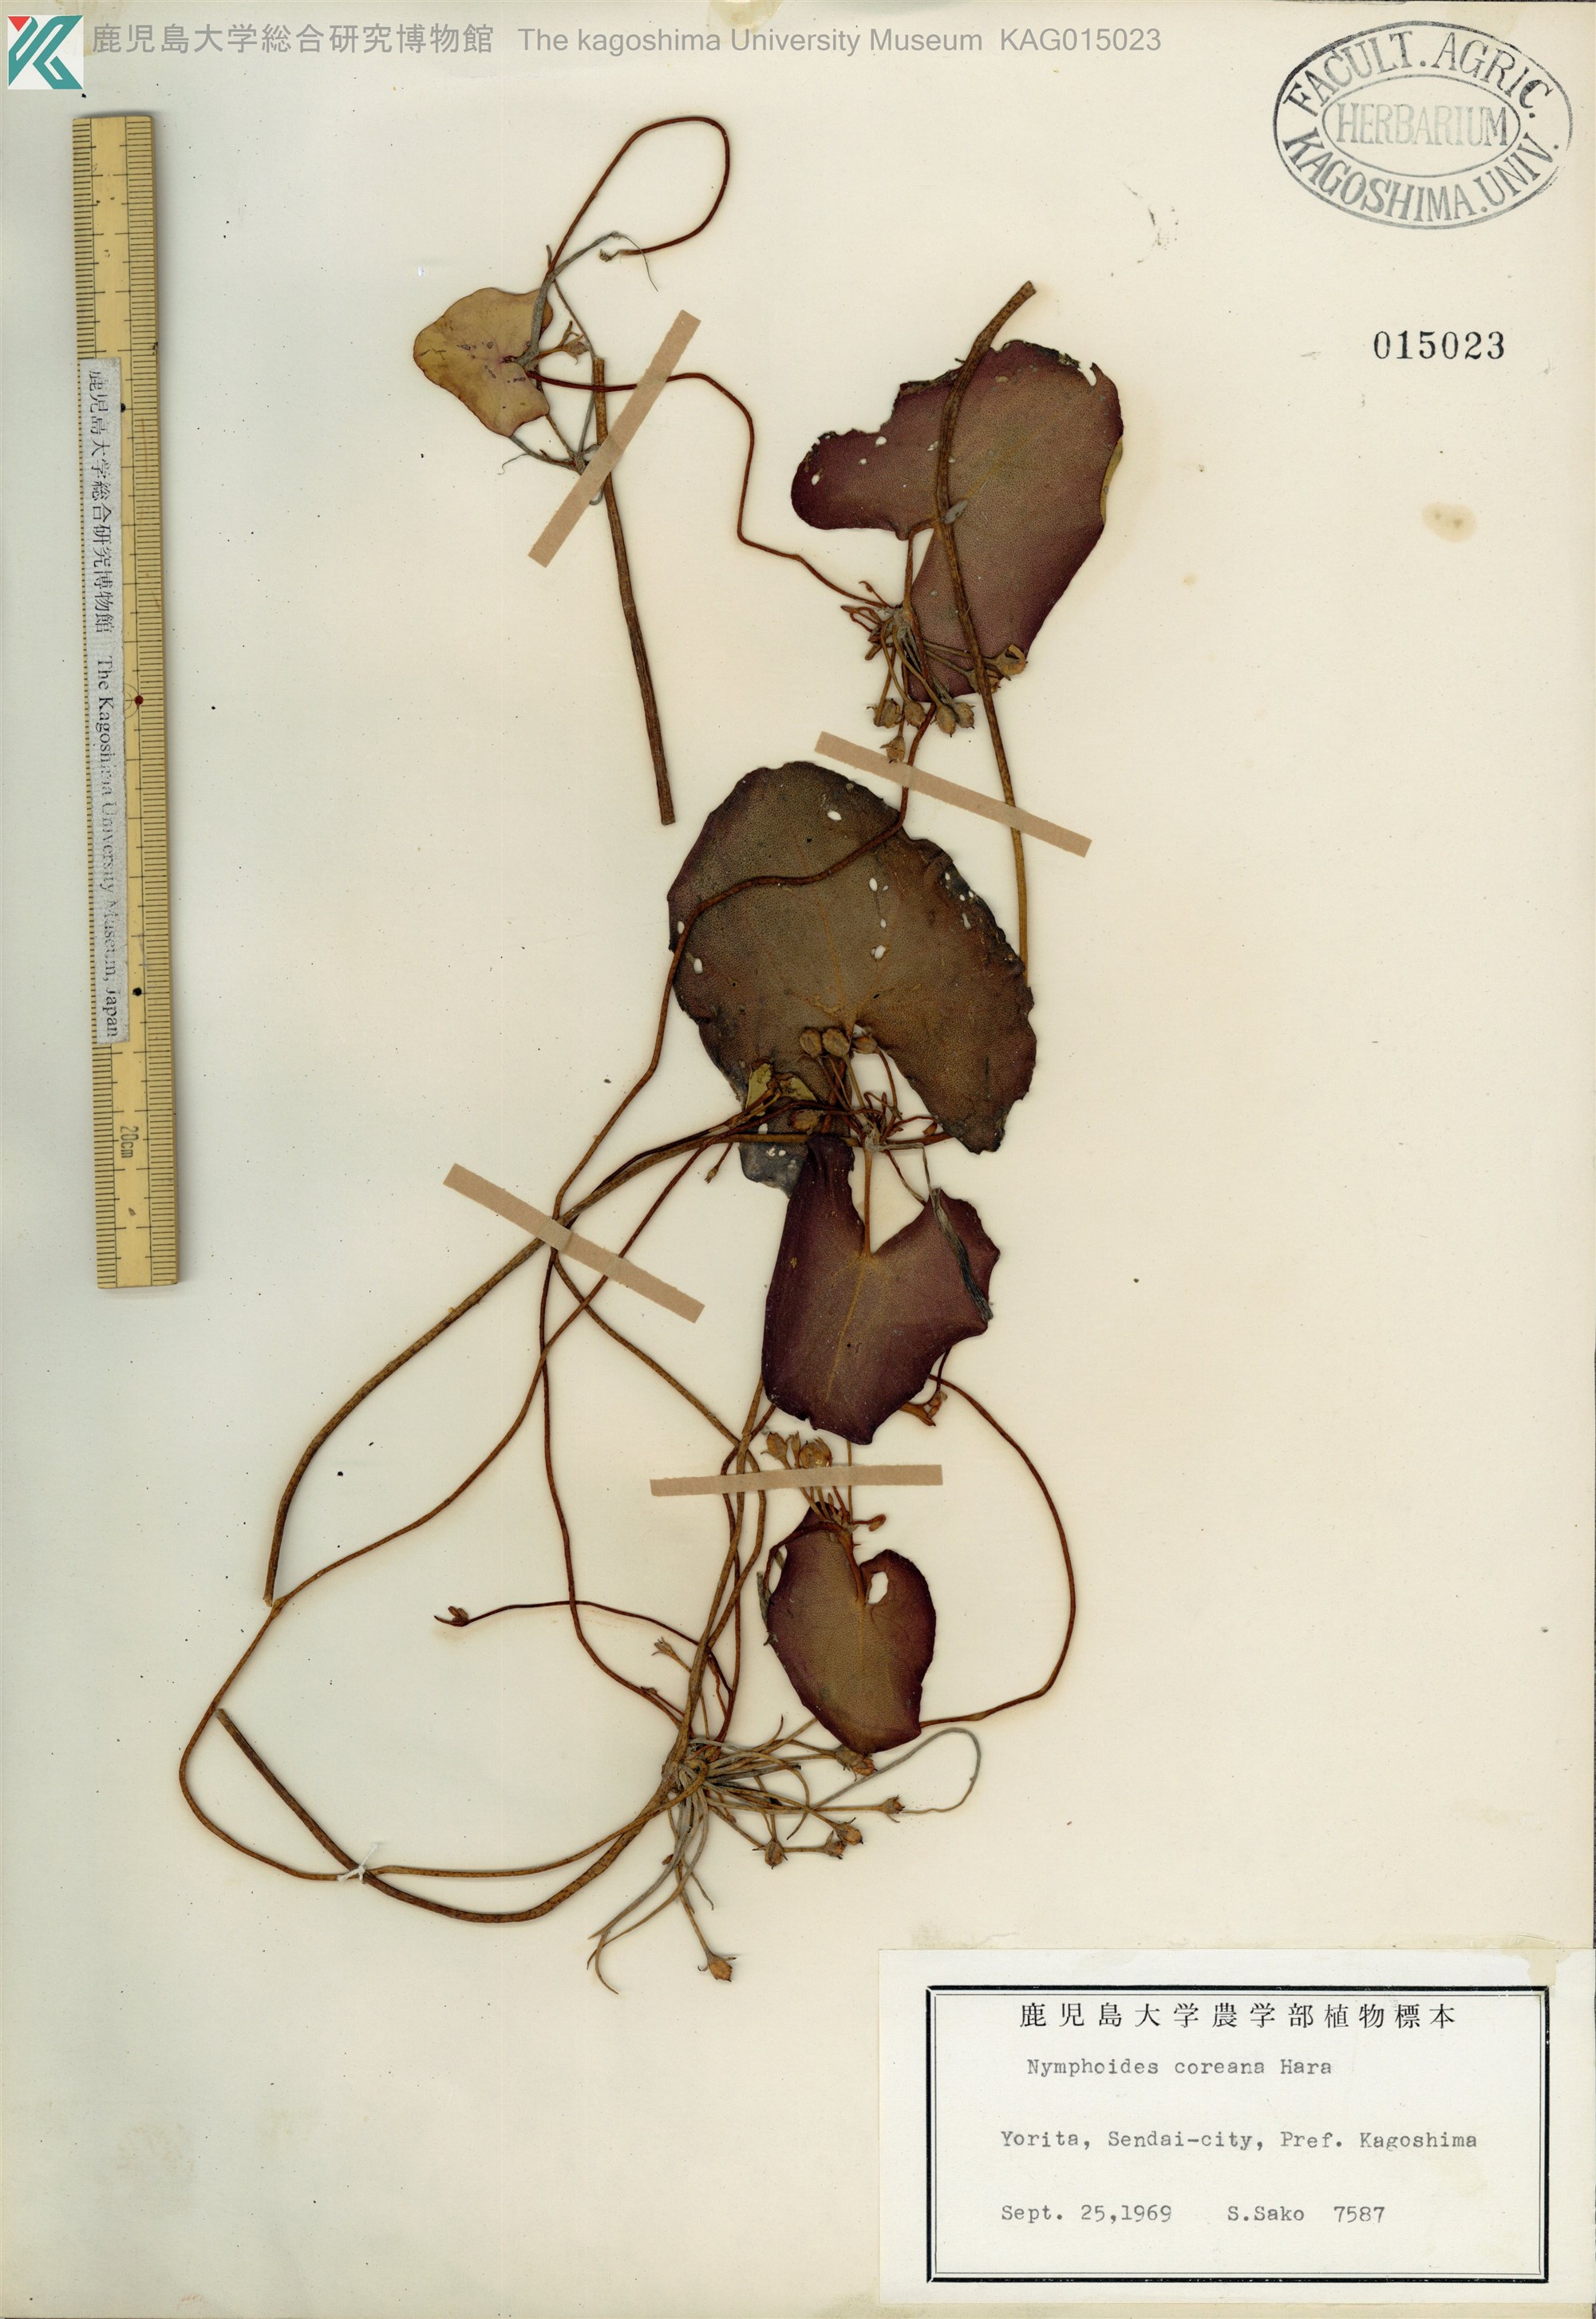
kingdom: Plantae
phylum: Tracheophyta
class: Magnoliopsida
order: Asterales
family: Menyanthaceae
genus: Nymphoides
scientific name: Nymphoides coreana
